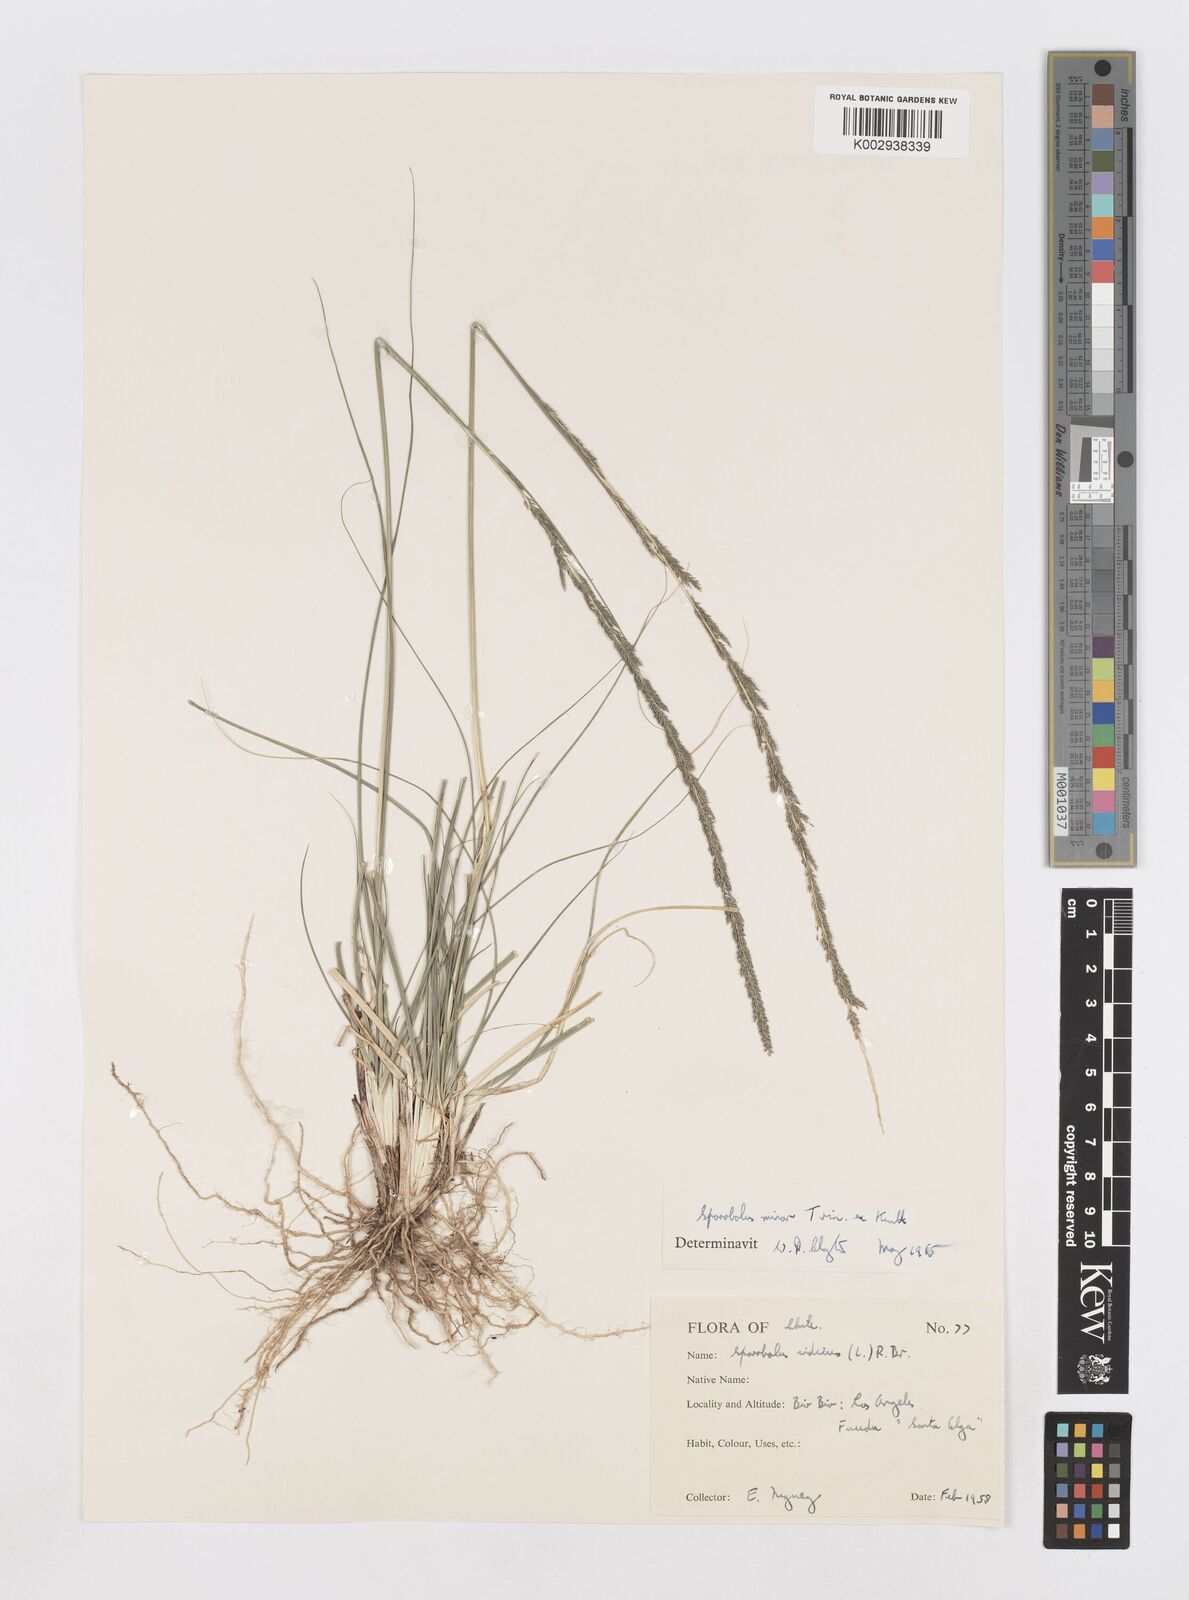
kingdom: Plantae
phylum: Tracheophyta
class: Liliopsida
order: Poales
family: Poaceae
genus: Sporobolus
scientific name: Sporobolus minor
